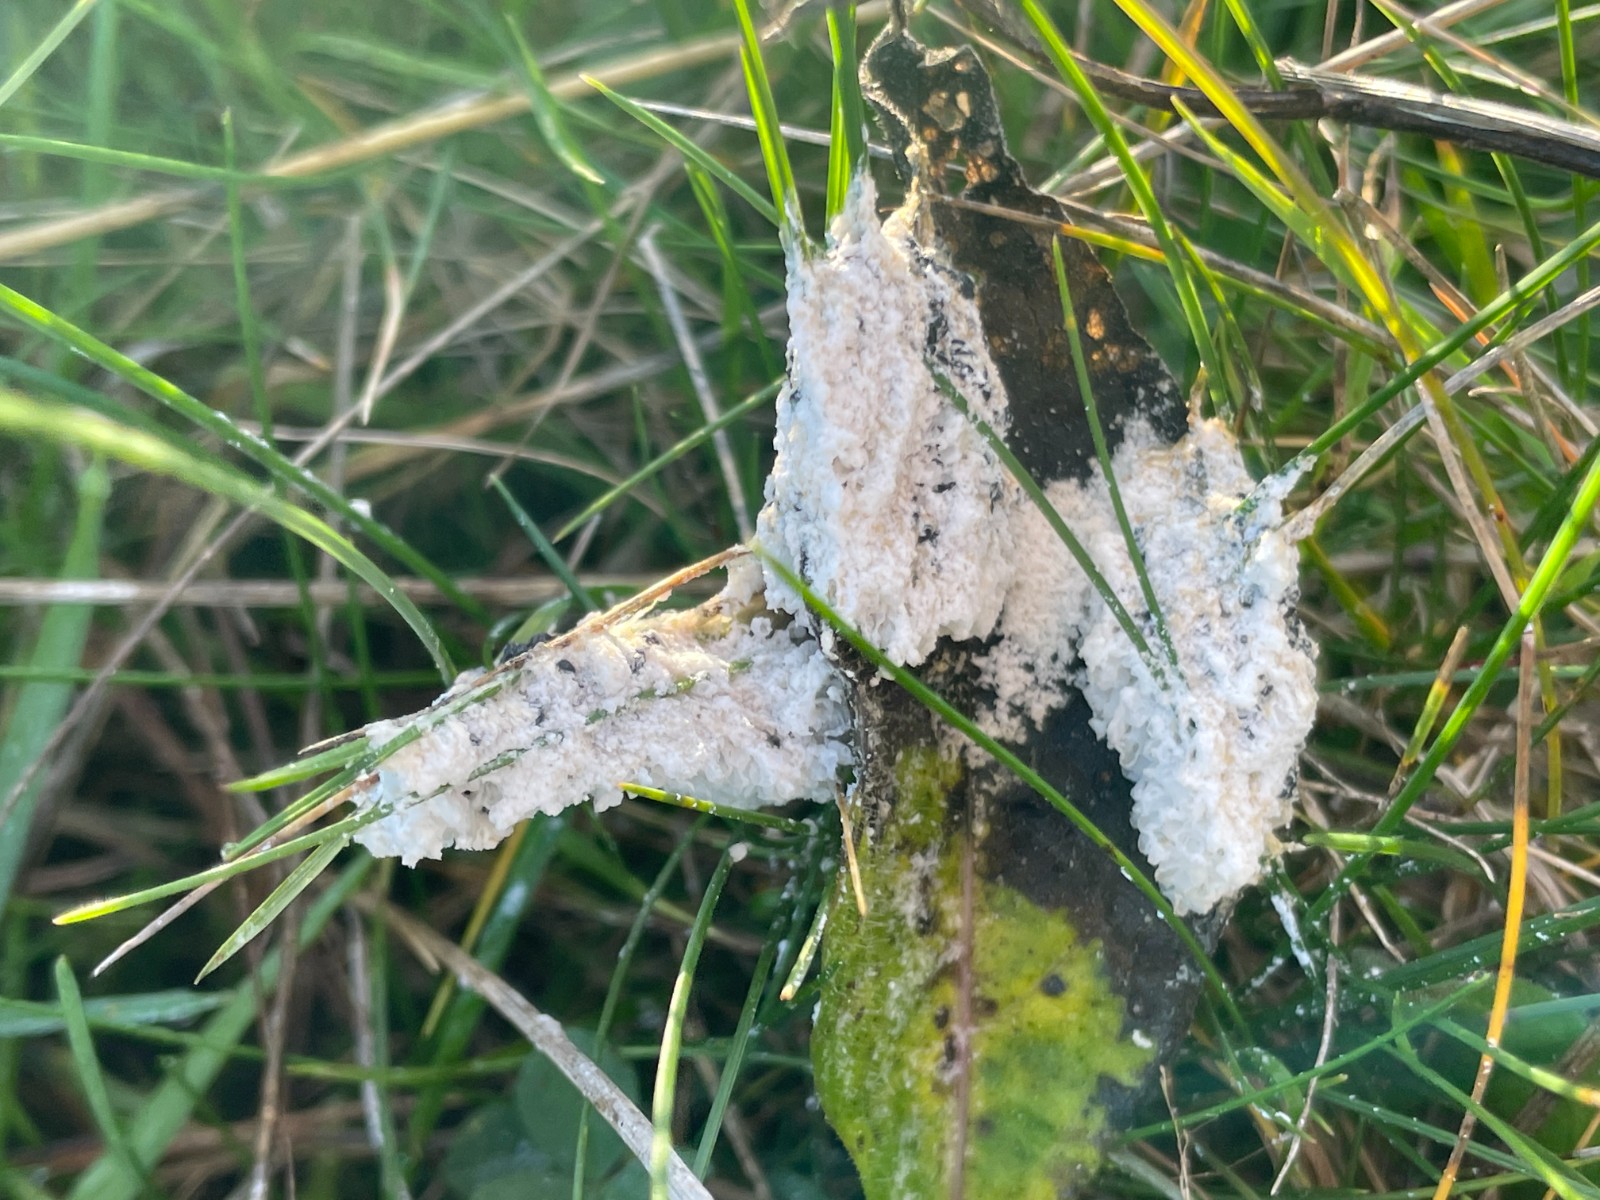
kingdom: Protozoa
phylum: Mycetozoa
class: Myxomycetes
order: Physarales
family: Physaraceae
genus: Didymium
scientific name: Didymium
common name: urteskum
